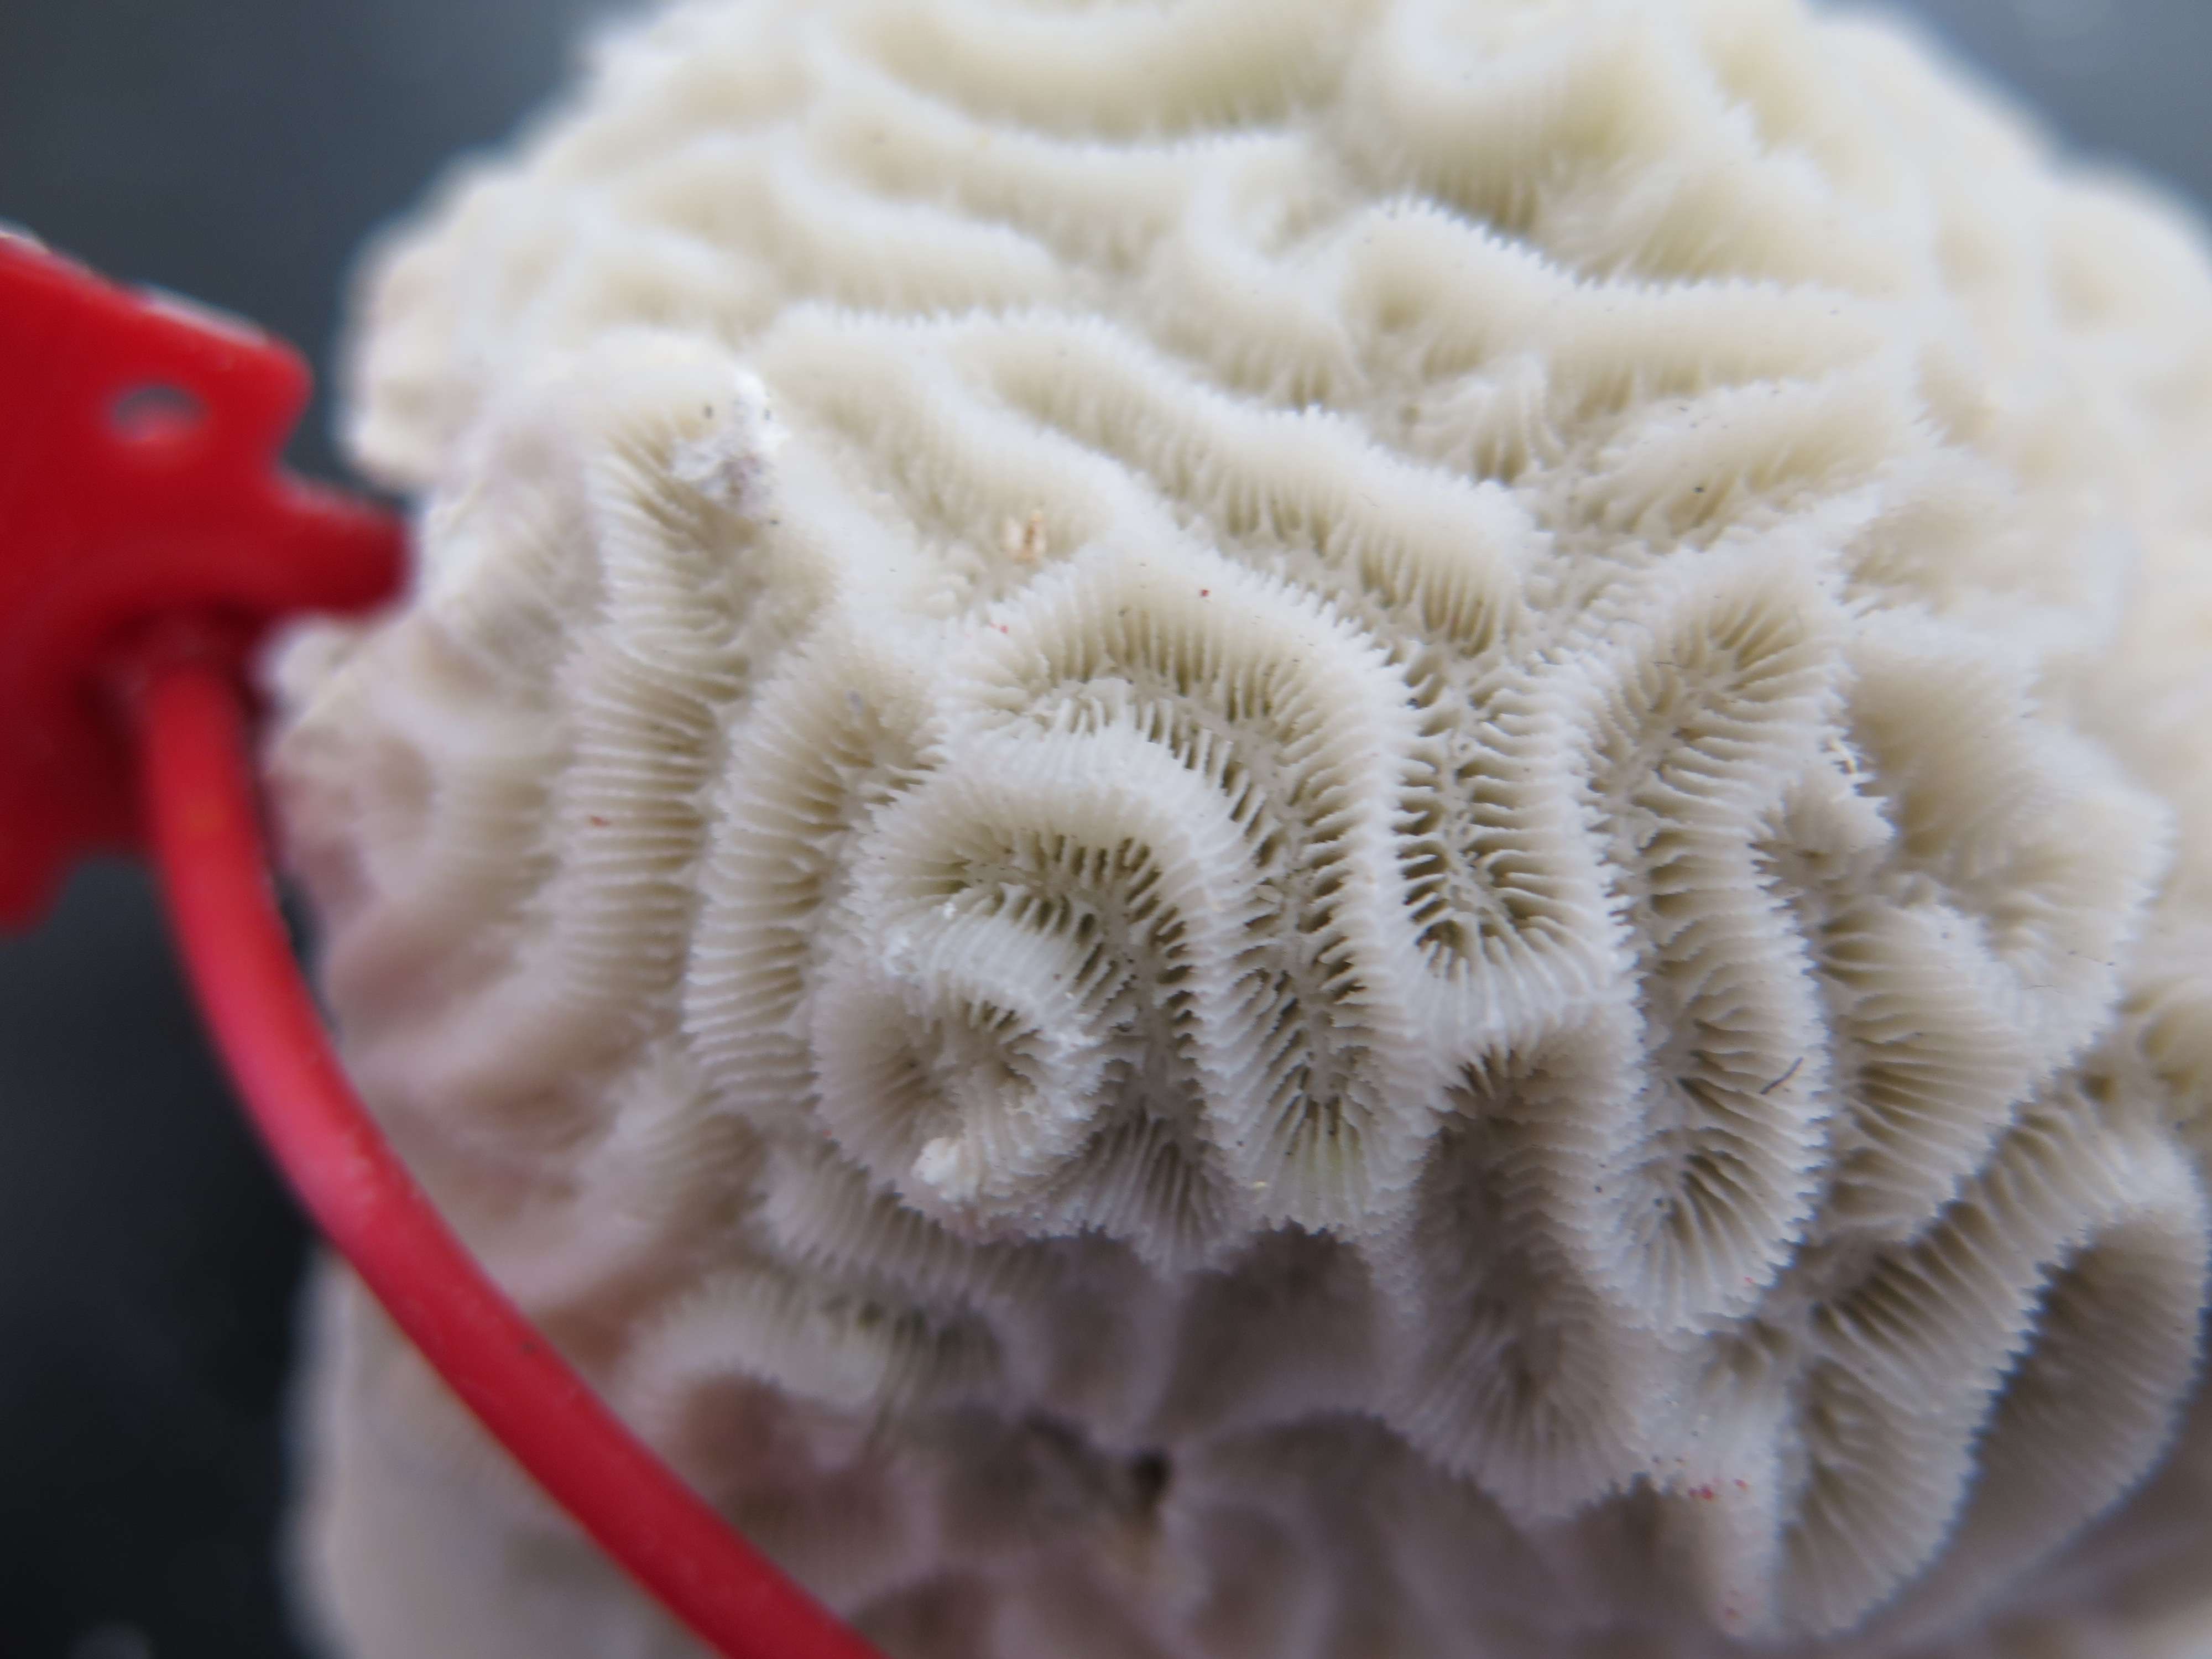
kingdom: Animalia
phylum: Cnidaria
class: Anthozoa
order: Scleractinia
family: Faviidae
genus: Pseudodiploria
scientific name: Pseudodiploria clivosa
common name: Knobby brain coral
